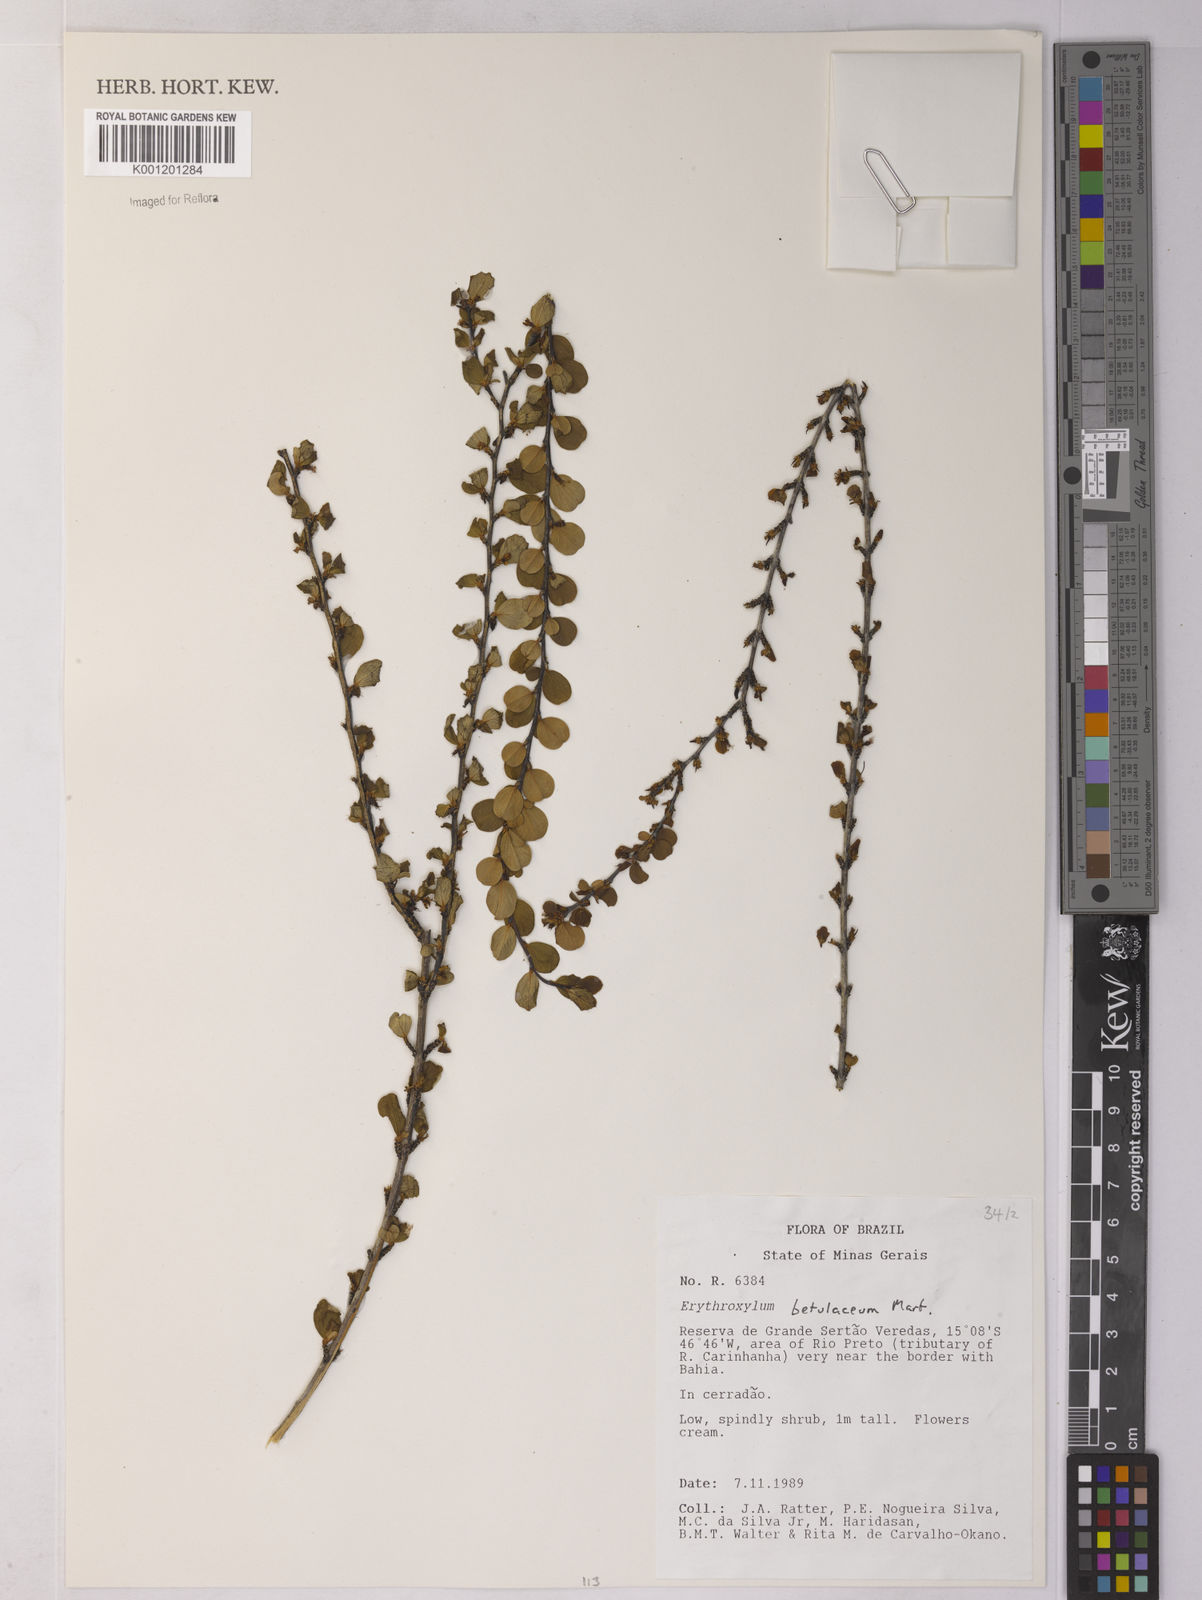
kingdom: Plantae
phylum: Tracheophyta
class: Magnoliopsida
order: Malpighiales
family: Erythroxylaceae
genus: Erythroxylum
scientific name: Erythroxylum betulaceum
